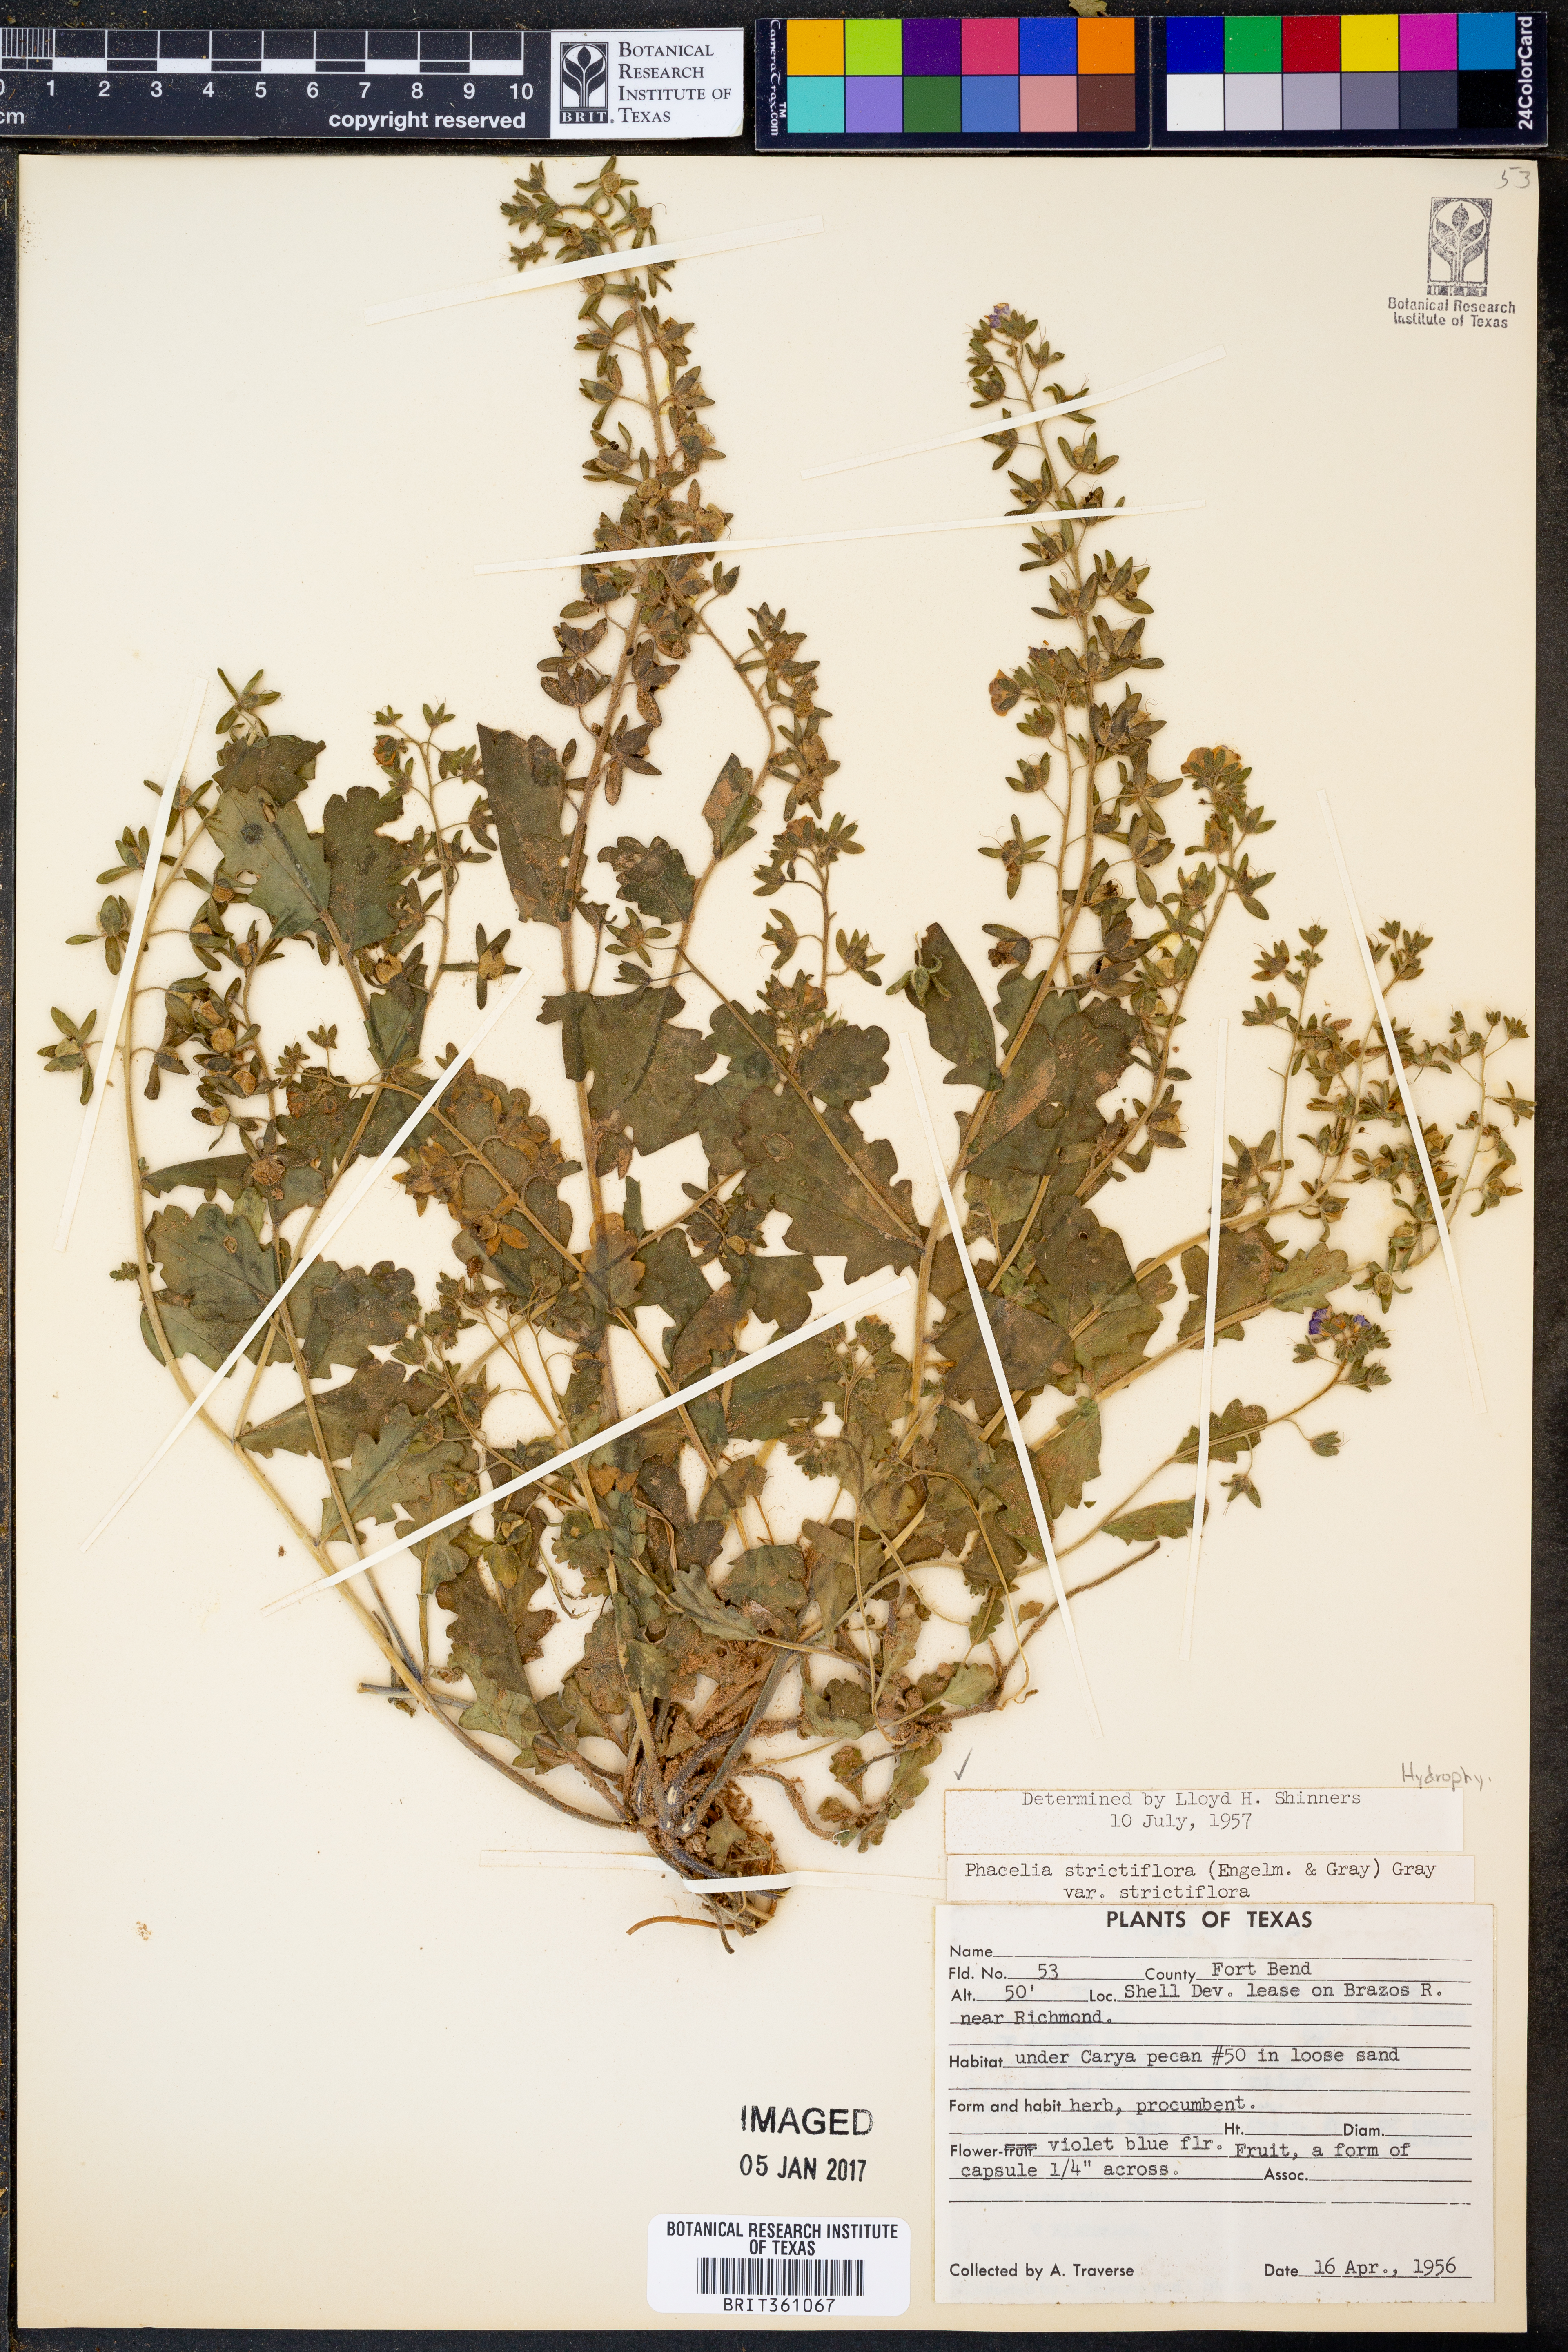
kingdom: Plantae
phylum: Tracheophyta
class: Magnoliopsida
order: Boraginales
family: Hydrophyllaceae
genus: Phacelia
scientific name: Phacelia strictiflora
